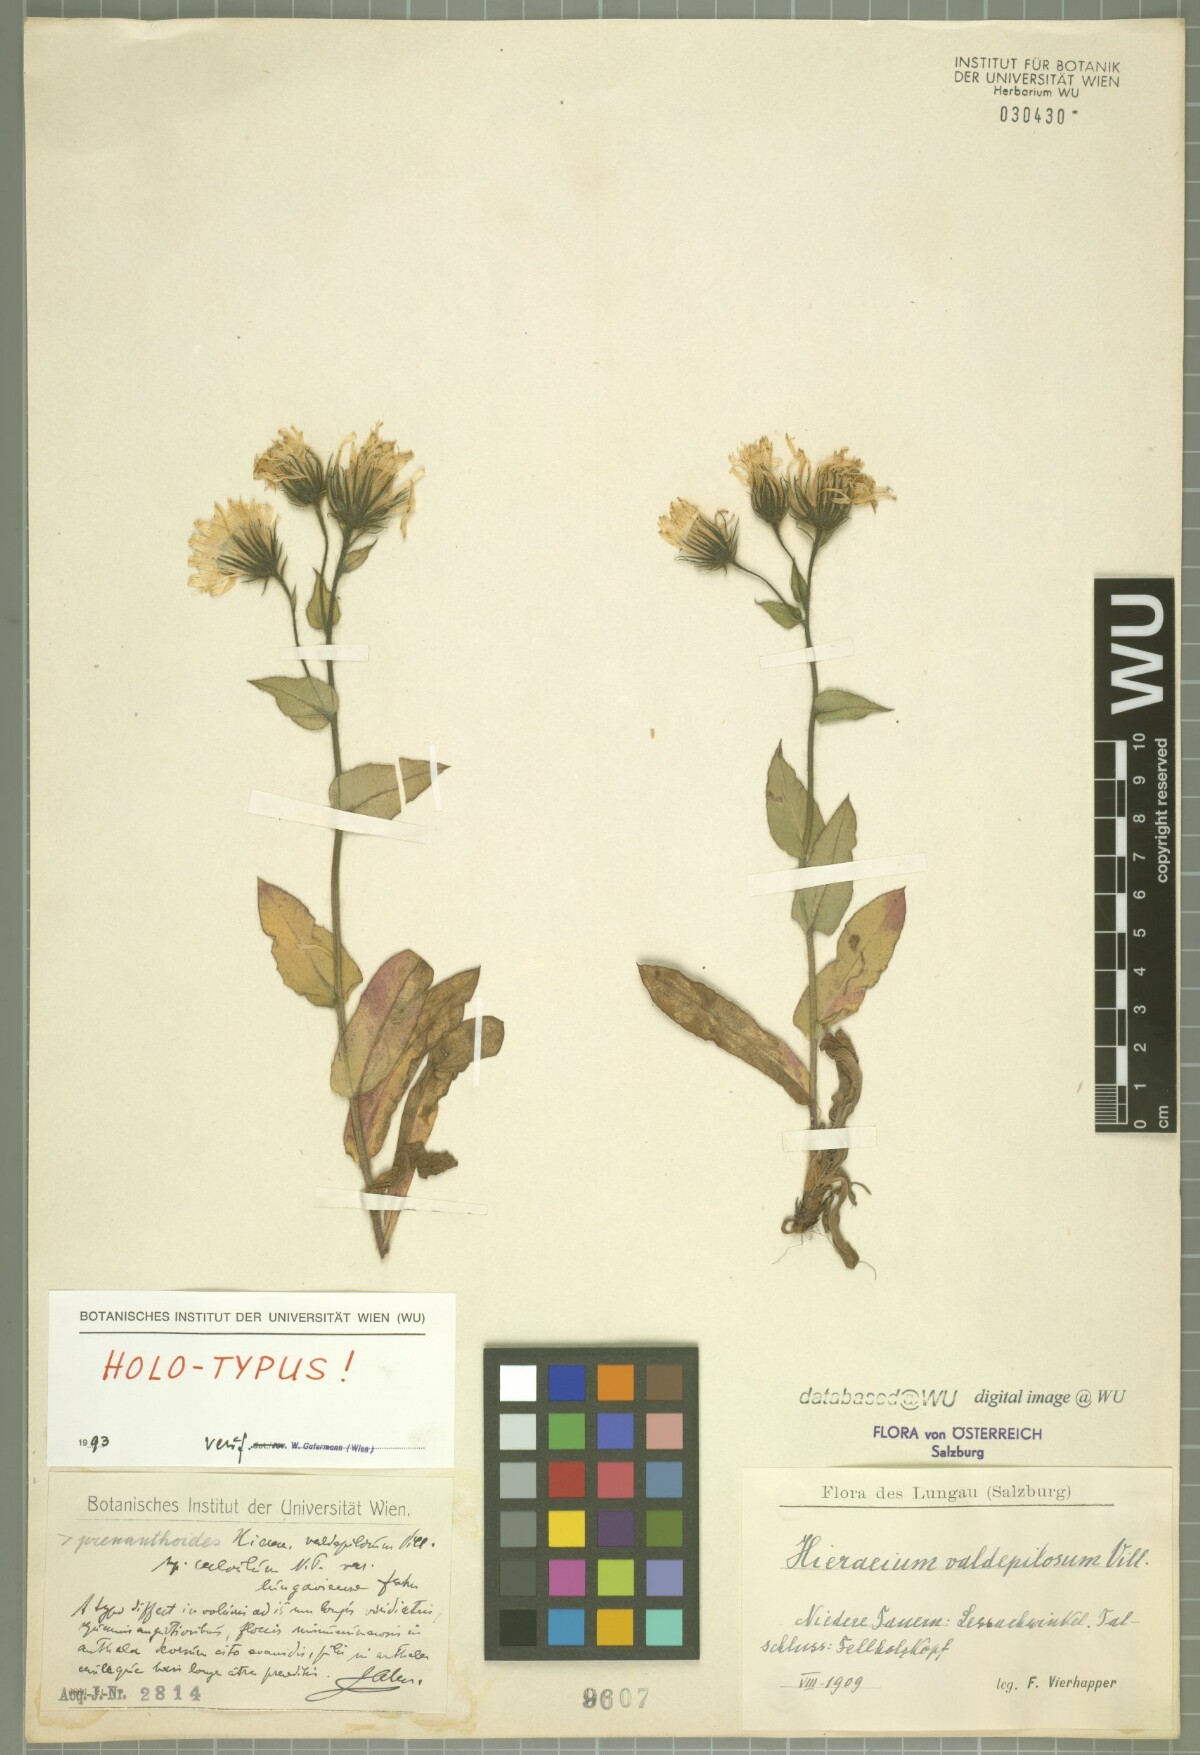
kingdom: Plantae
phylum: Tracheophyta
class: Magnoliopsida
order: Asterales
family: Asteraceae
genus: Hieracium
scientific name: Hieracium valdepilosum
